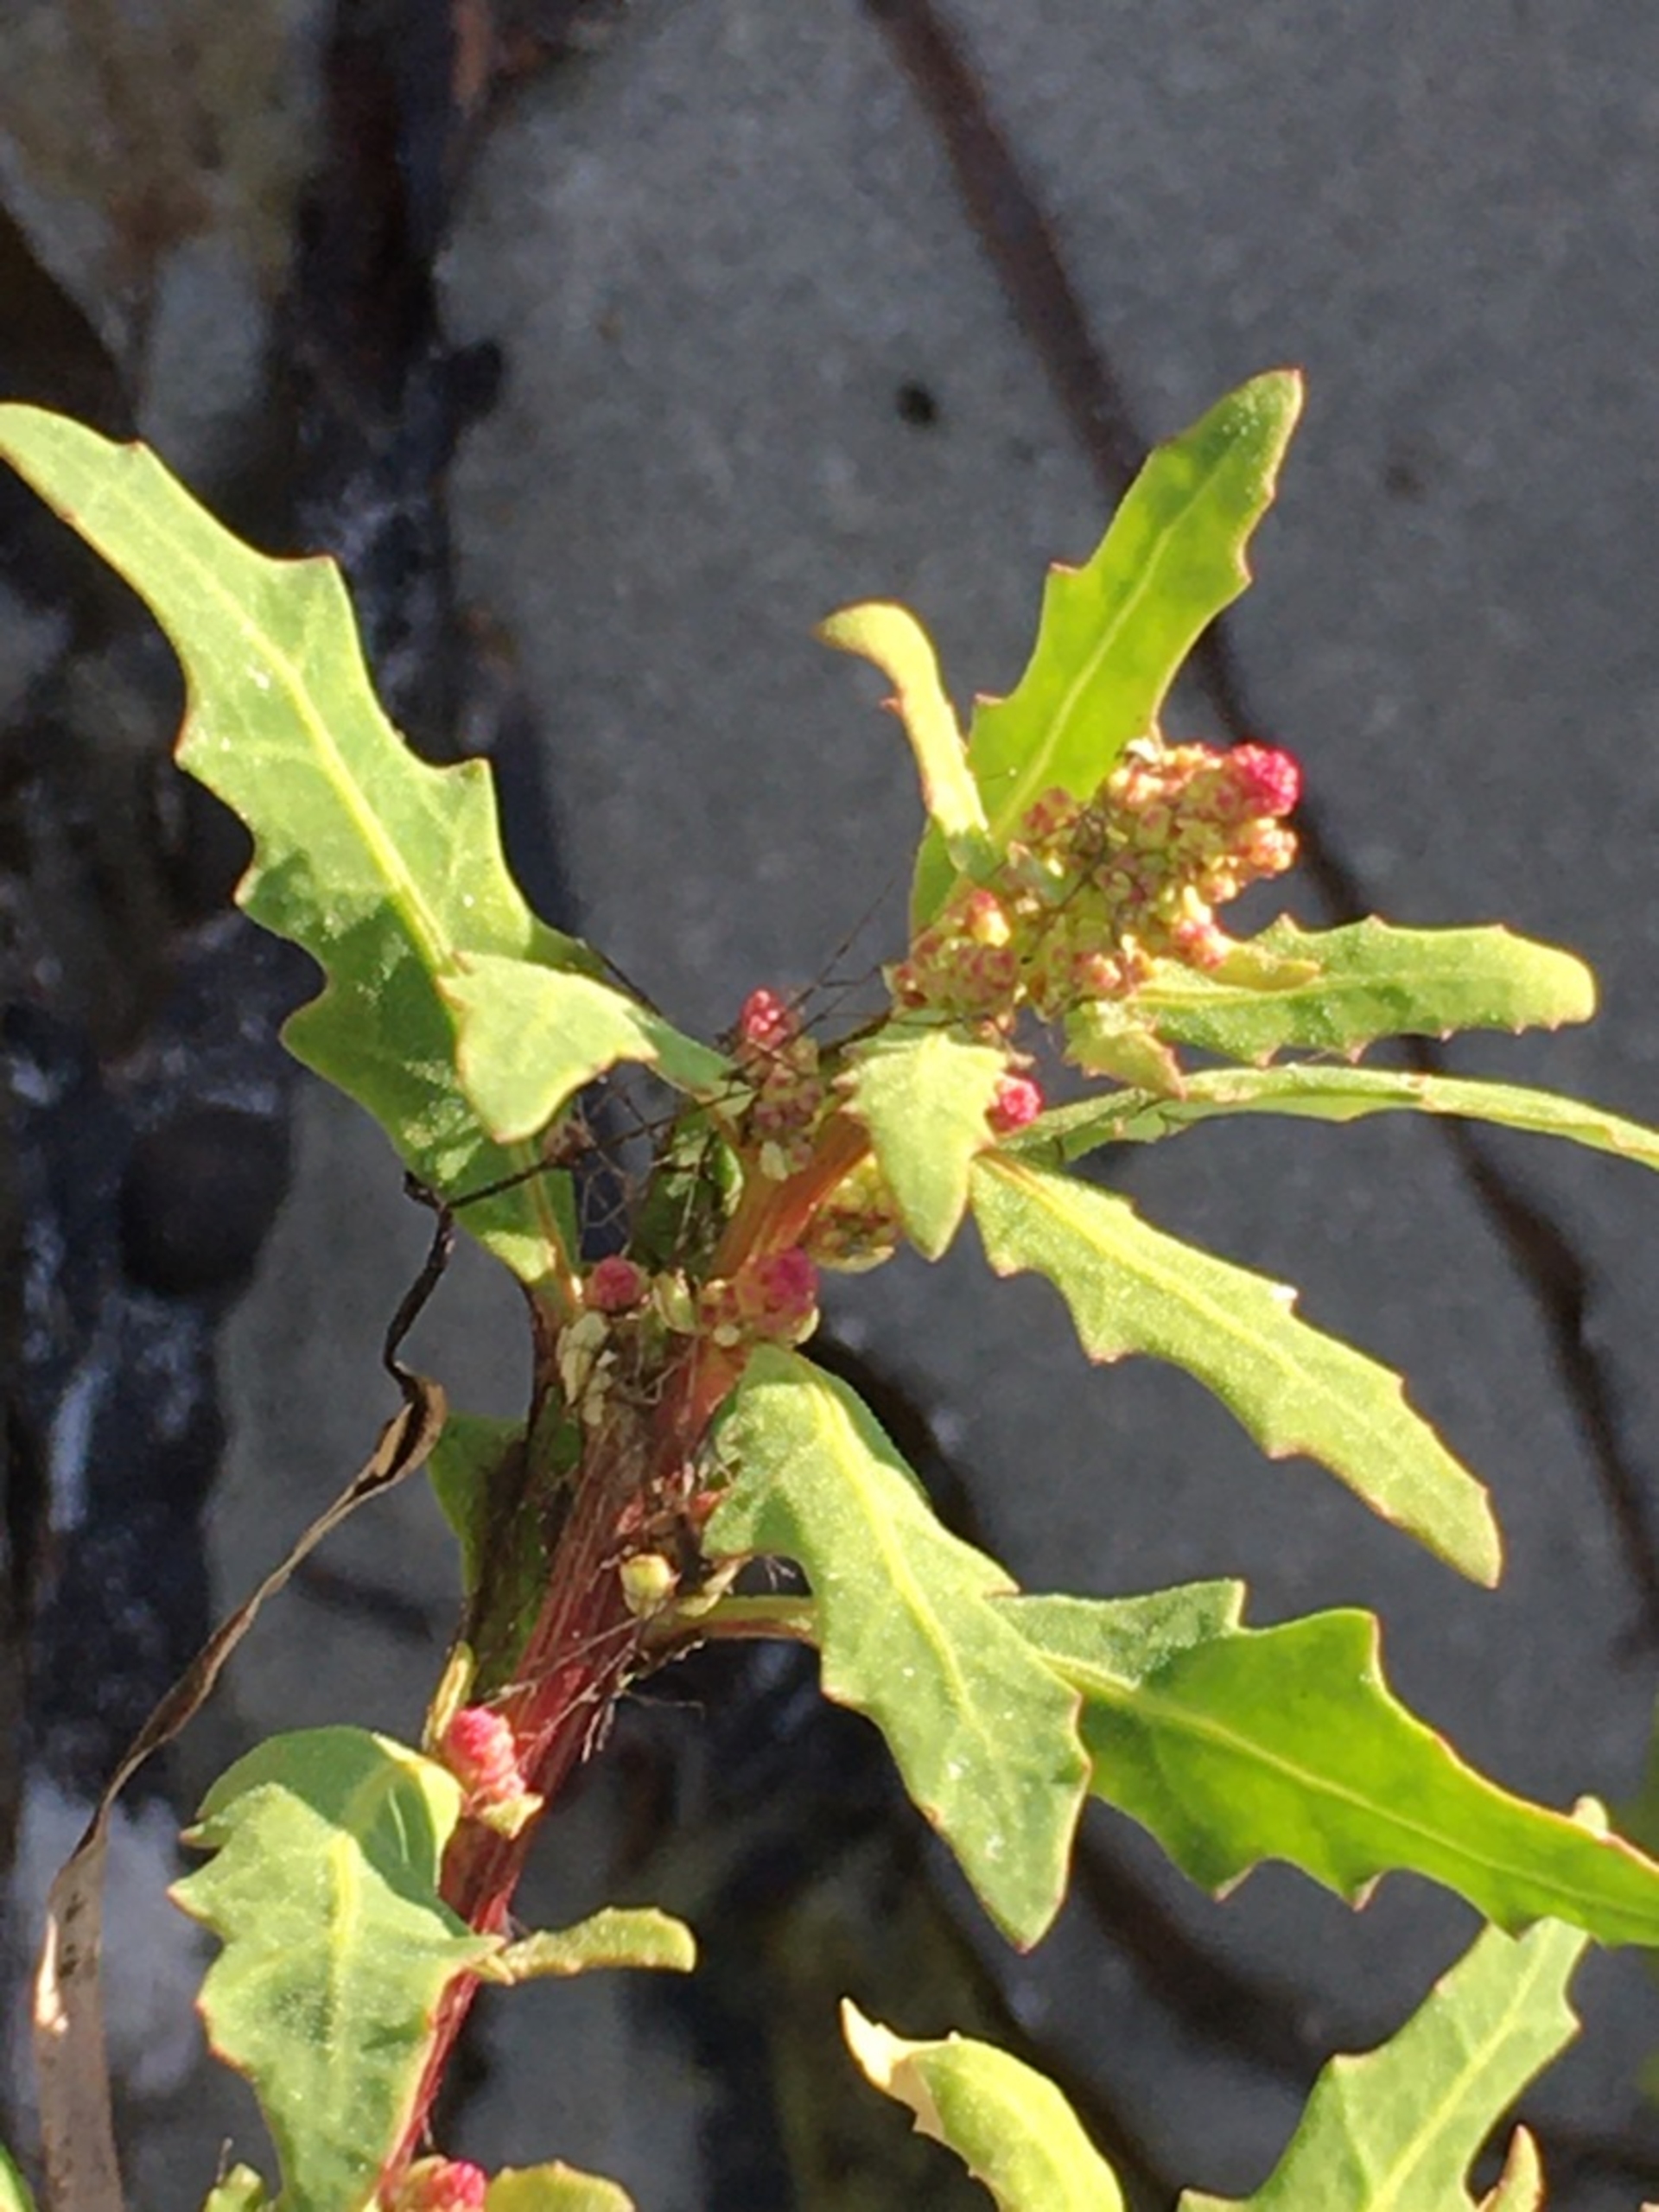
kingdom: Plantae
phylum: Tracheophyta
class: Magnoliopsida
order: Caryophyllales
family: Amaranthaceae
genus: Oxybasis
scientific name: Oxybasis glauca
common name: Blågrøn gåsefod
